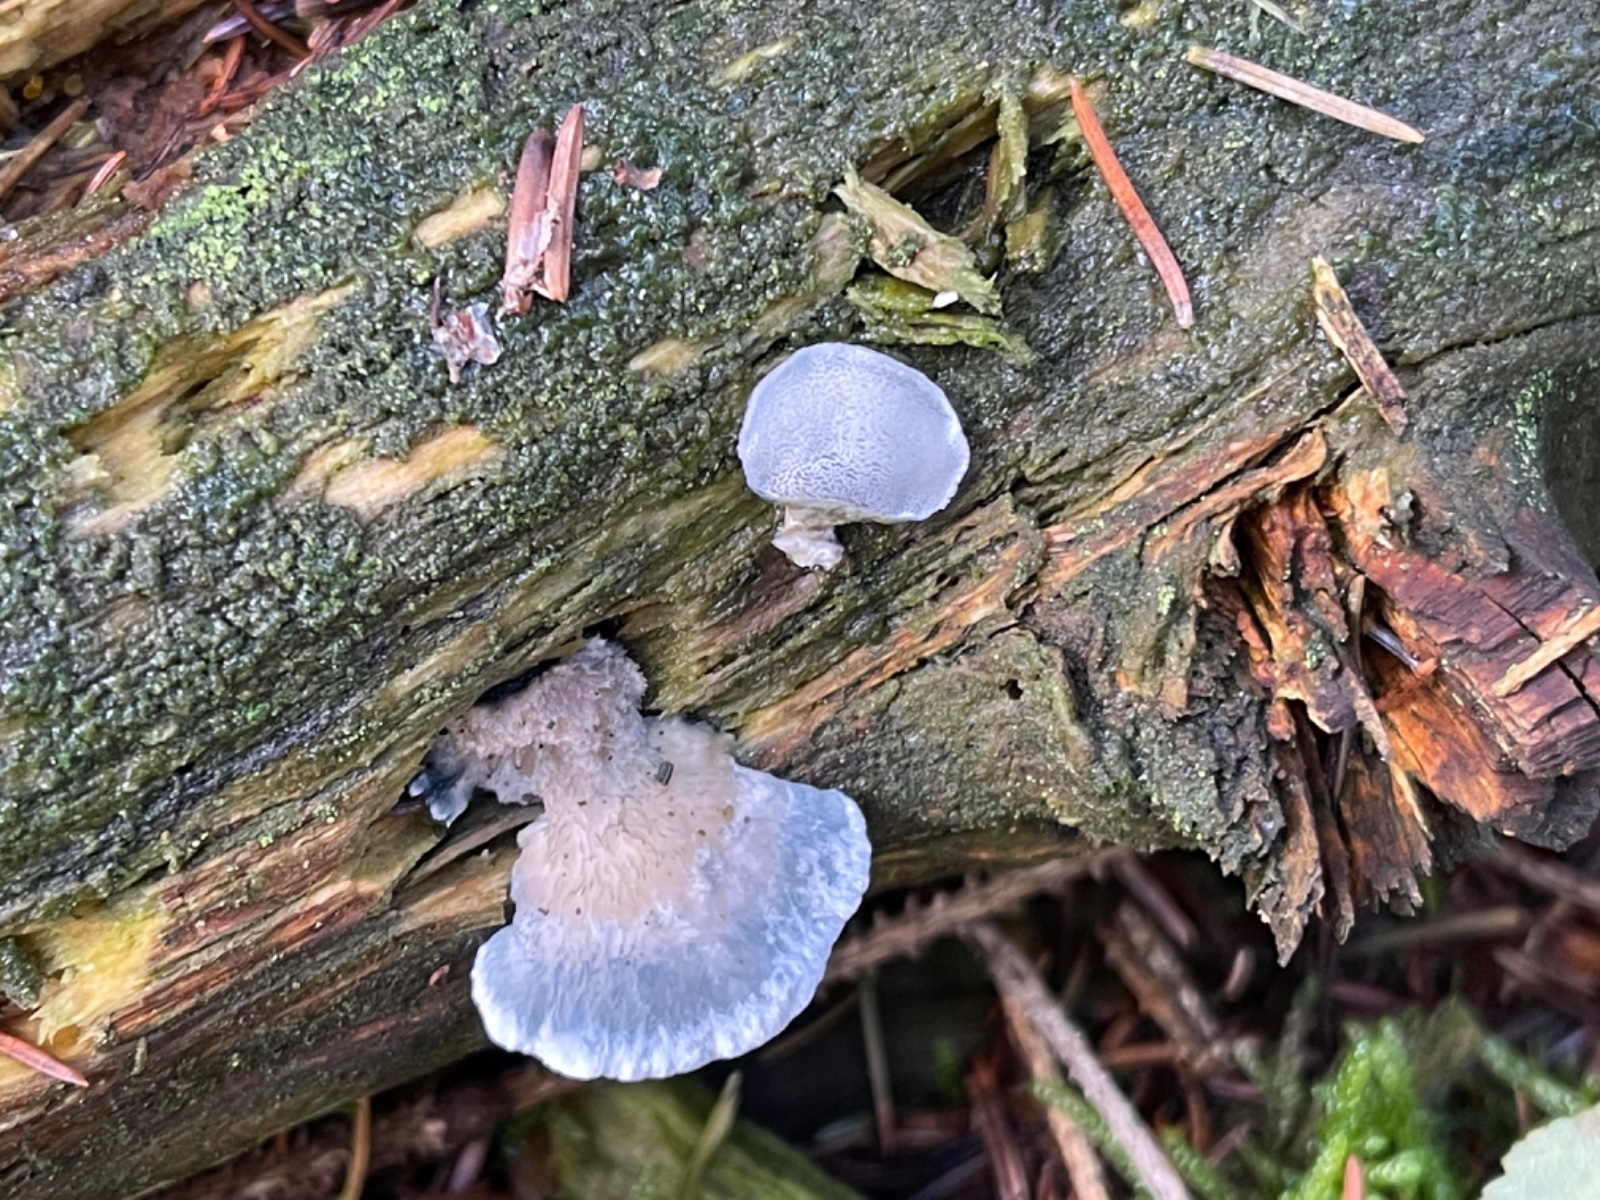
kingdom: Fungi
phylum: Basidiomycota
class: Agaricomycetes
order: Polyporales
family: Polyporaceae
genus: Cyanosporus
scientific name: Cyanosporus caesius
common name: blålig kødporesvamp
